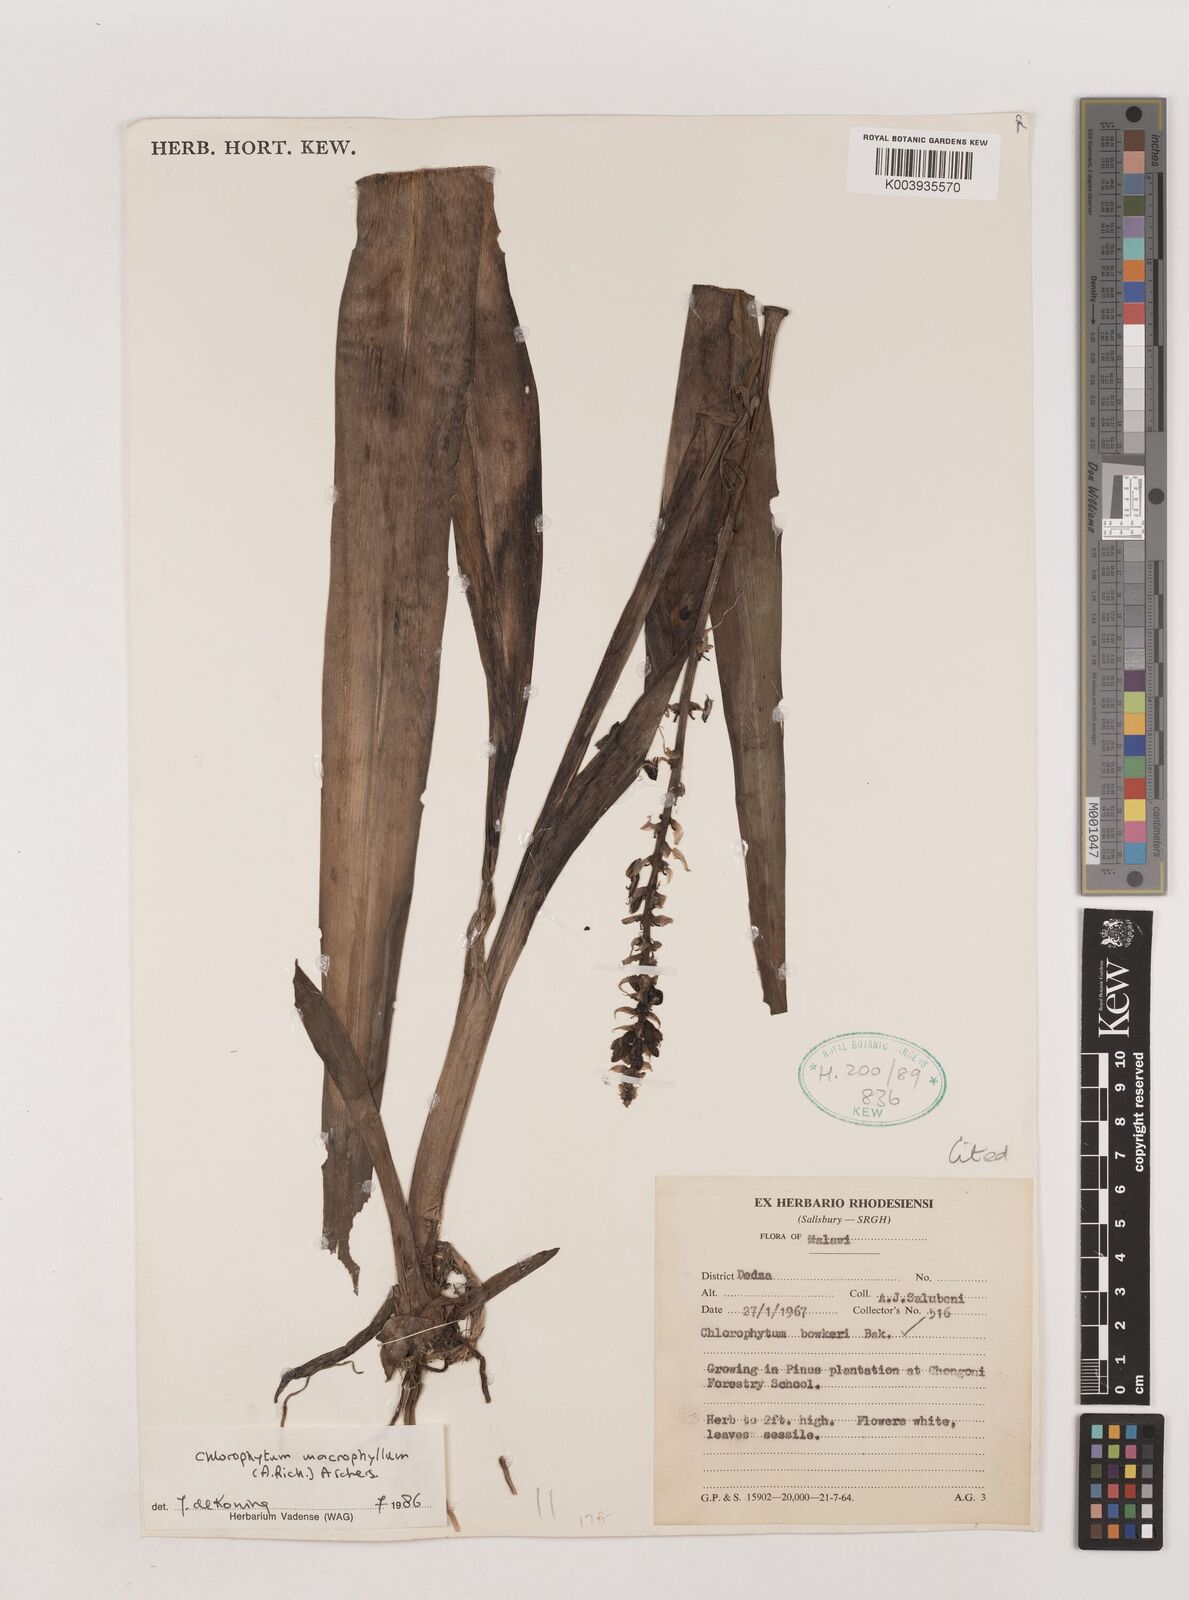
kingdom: Plantae
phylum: Tracheophyta
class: Liliopsida
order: Asparagales
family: Asparagaceae
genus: Chlorophytum
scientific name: Chlorophytum macrophyllum
